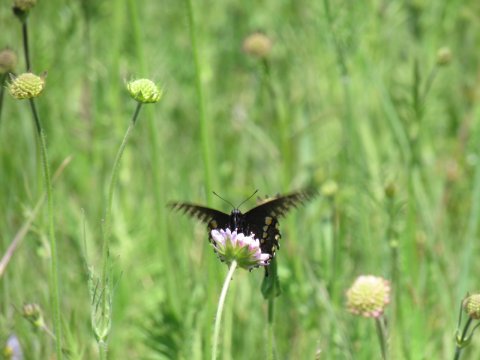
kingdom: Animalia
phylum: Arthropoda
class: Insecta
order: Lepidoptera
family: Papilionidae
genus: Papilio
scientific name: Papilio polyxenes
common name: Black Swallowtail
